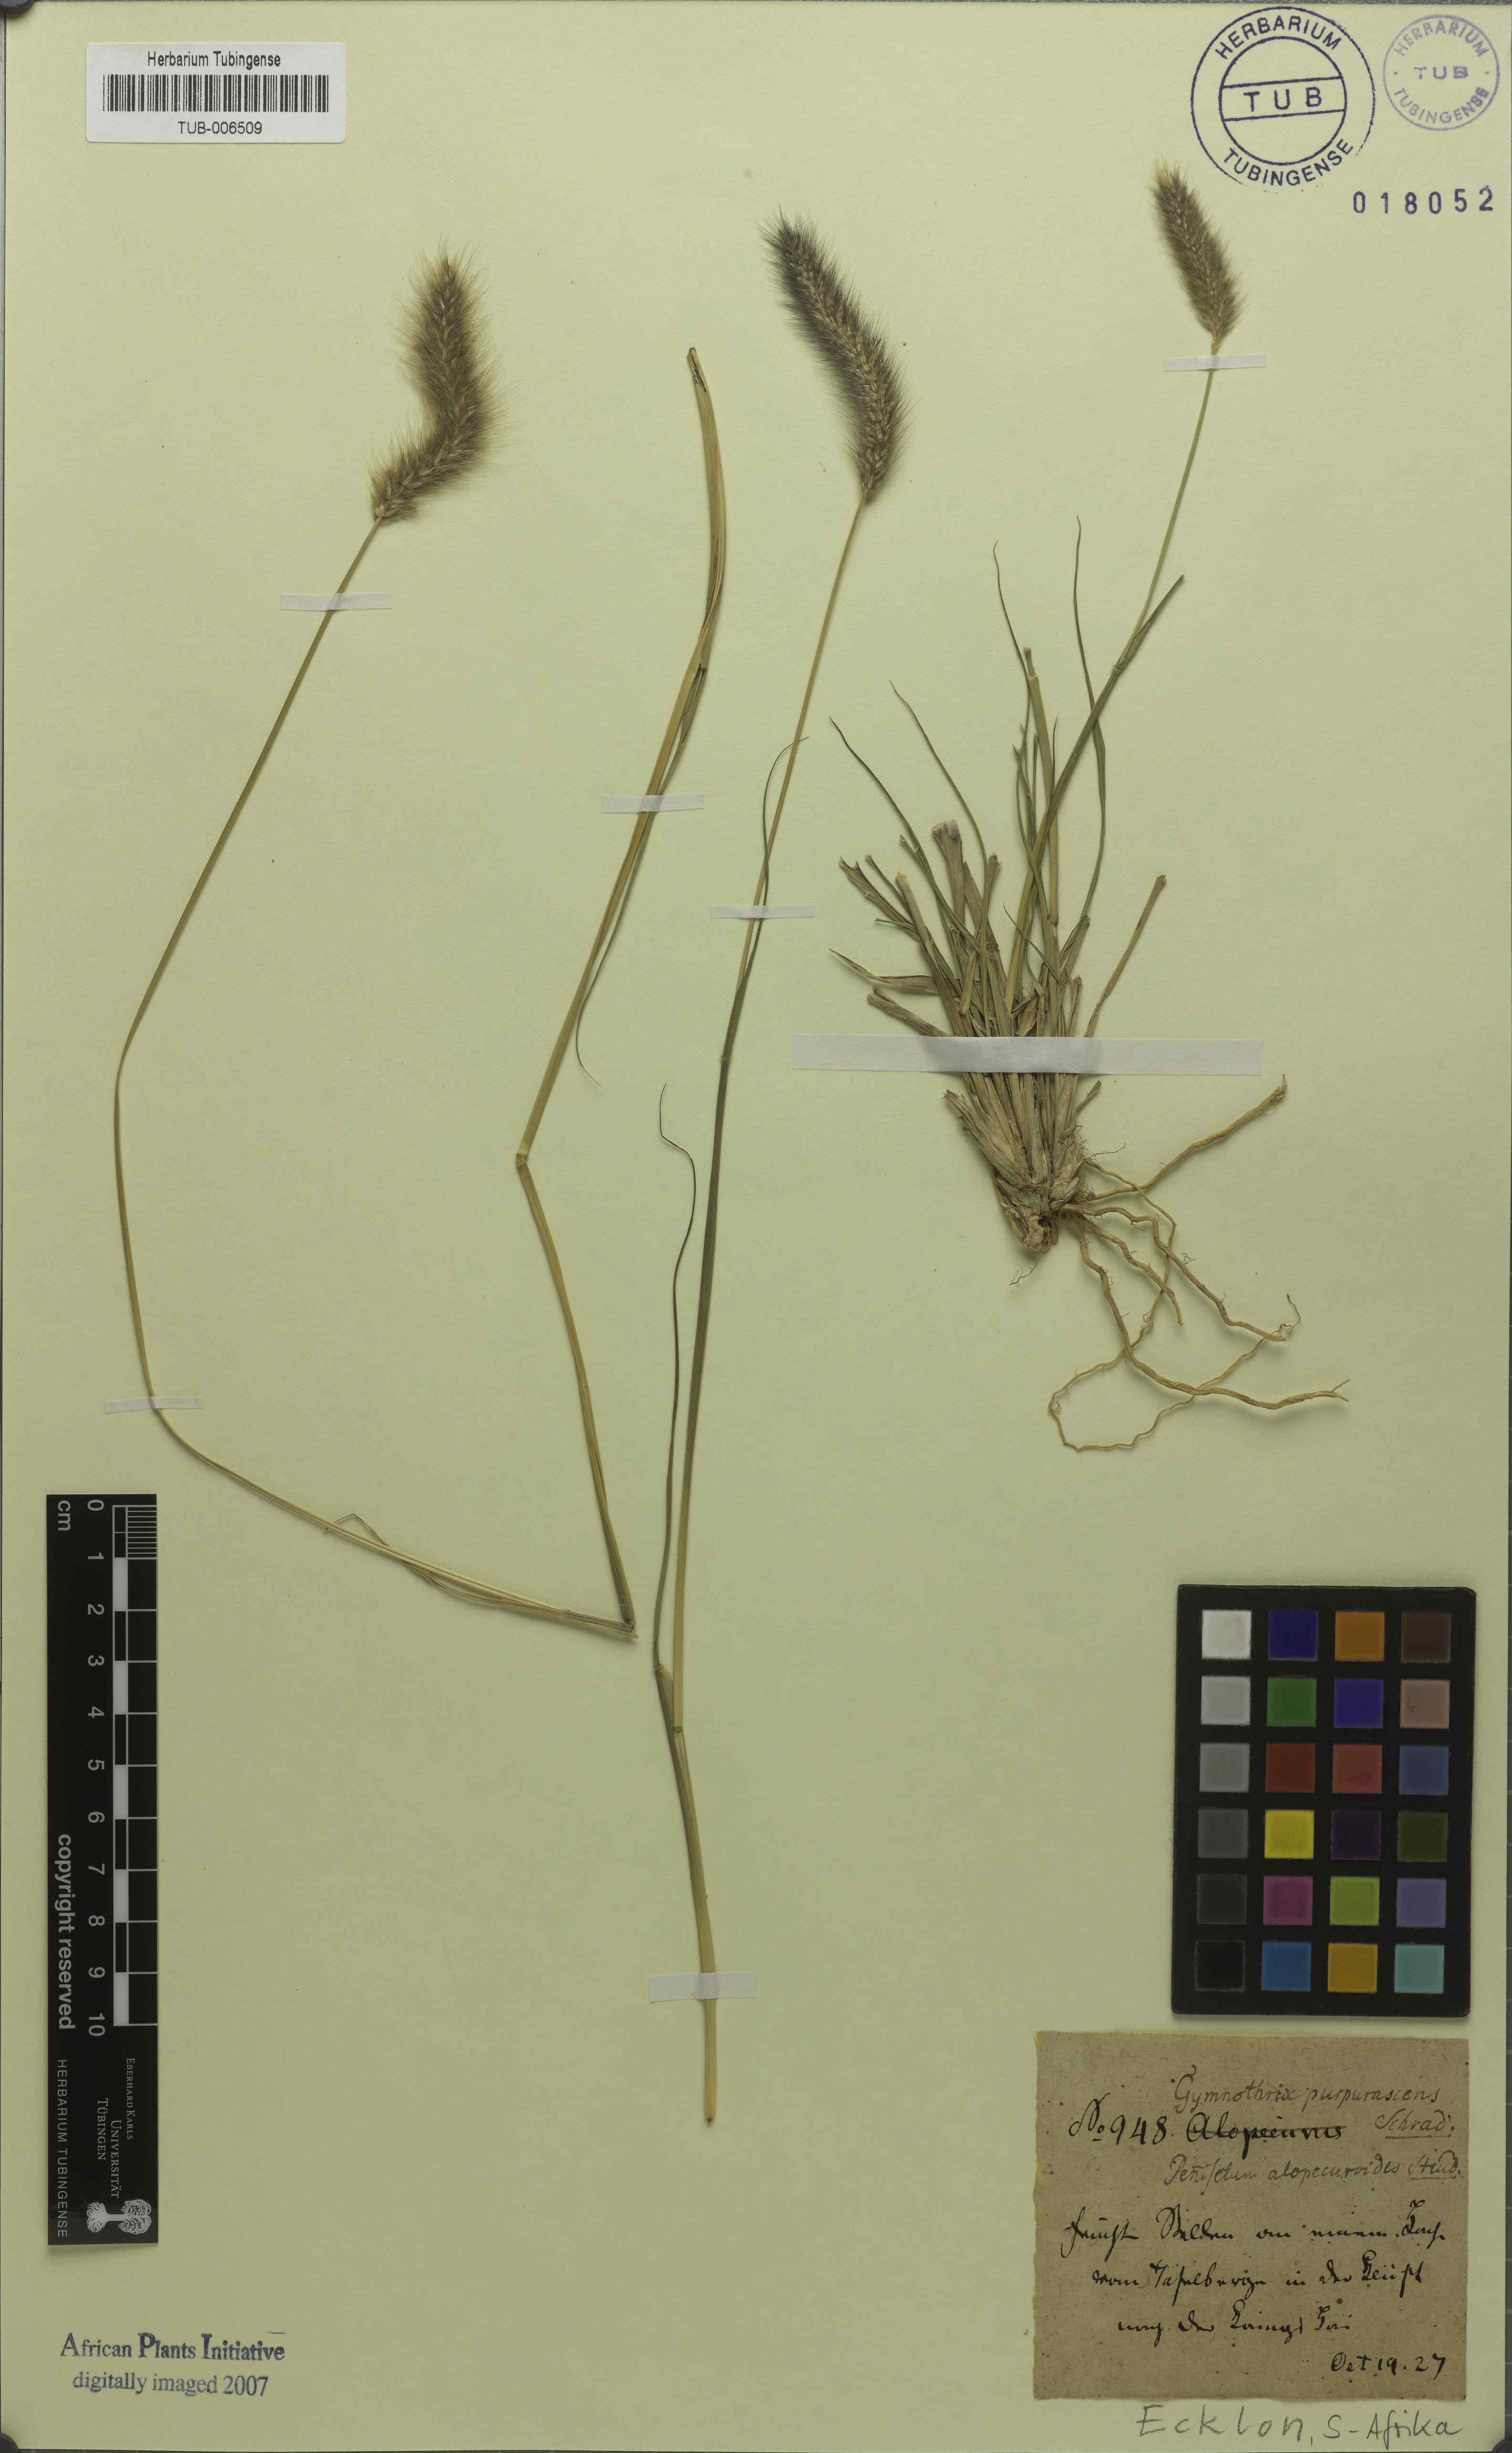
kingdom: Plantae
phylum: Tracheophyta
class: Liliopsida
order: Poales
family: Poaceae
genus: Cenchrus
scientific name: Cenchrus alopecuroides
